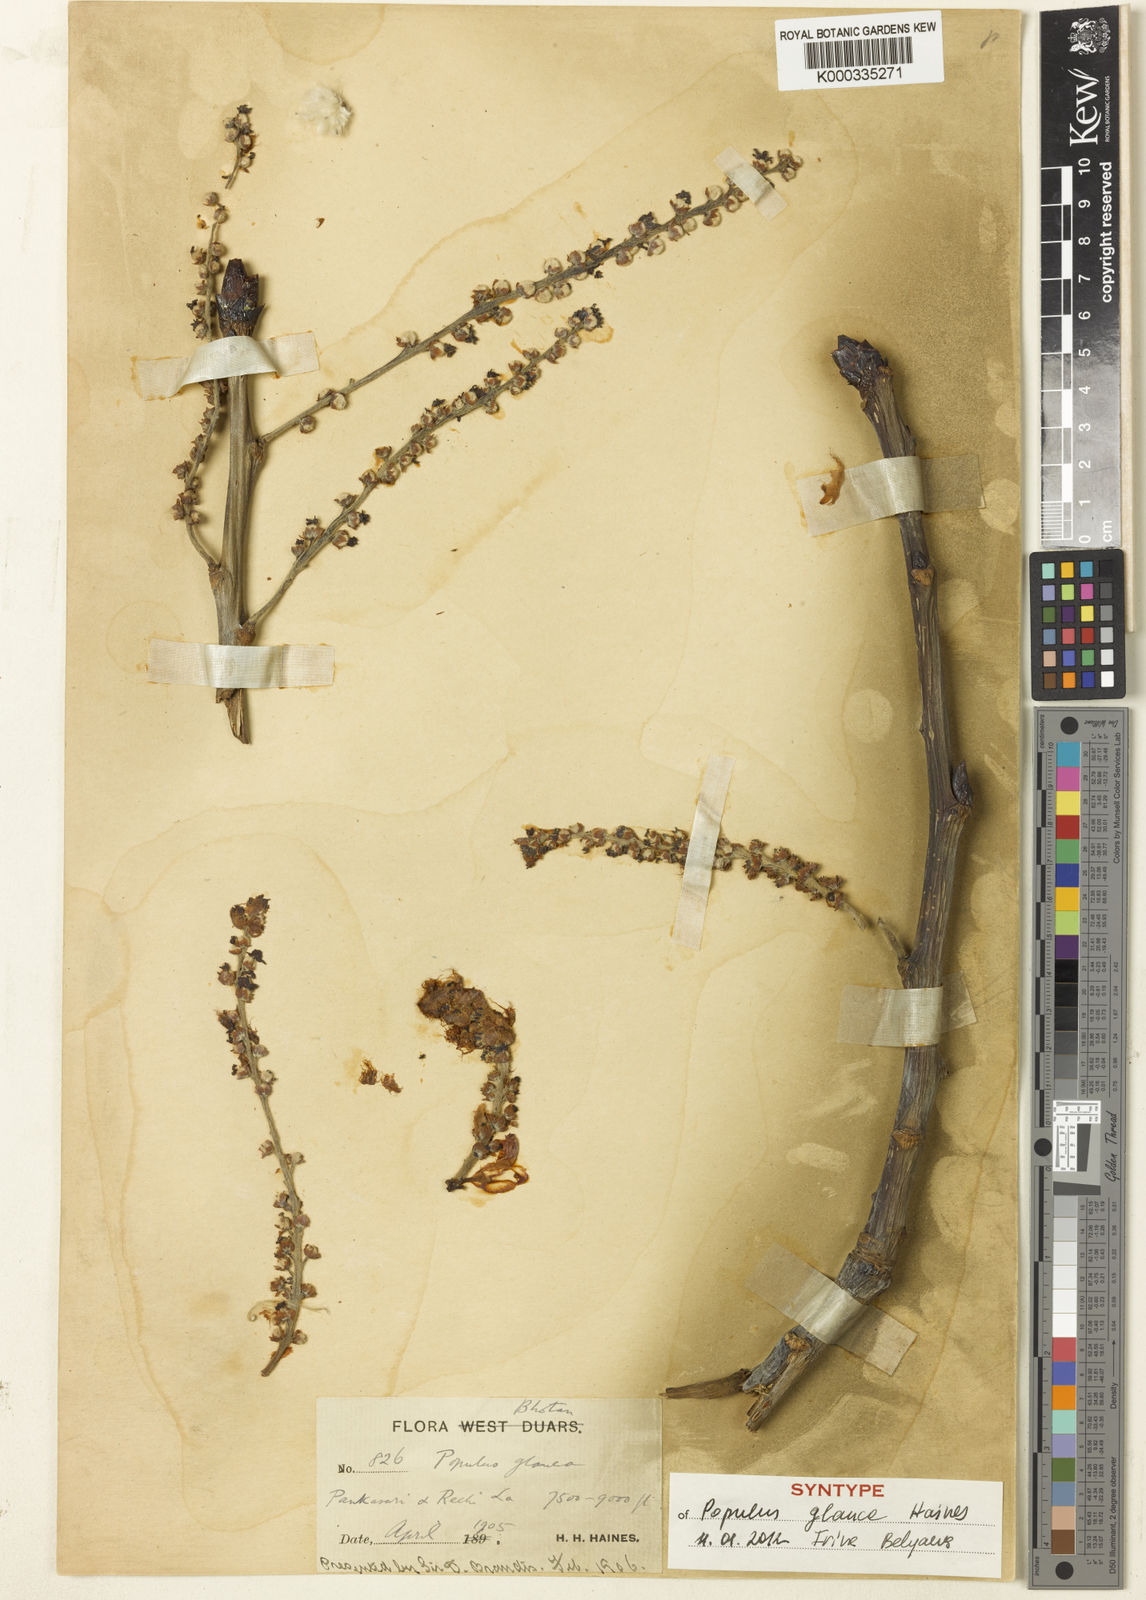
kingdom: Plantae
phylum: Tracheophyta
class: Magnoliopsida
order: Malpighiales
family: Salicaceae
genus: Populus
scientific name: Populus glauca
